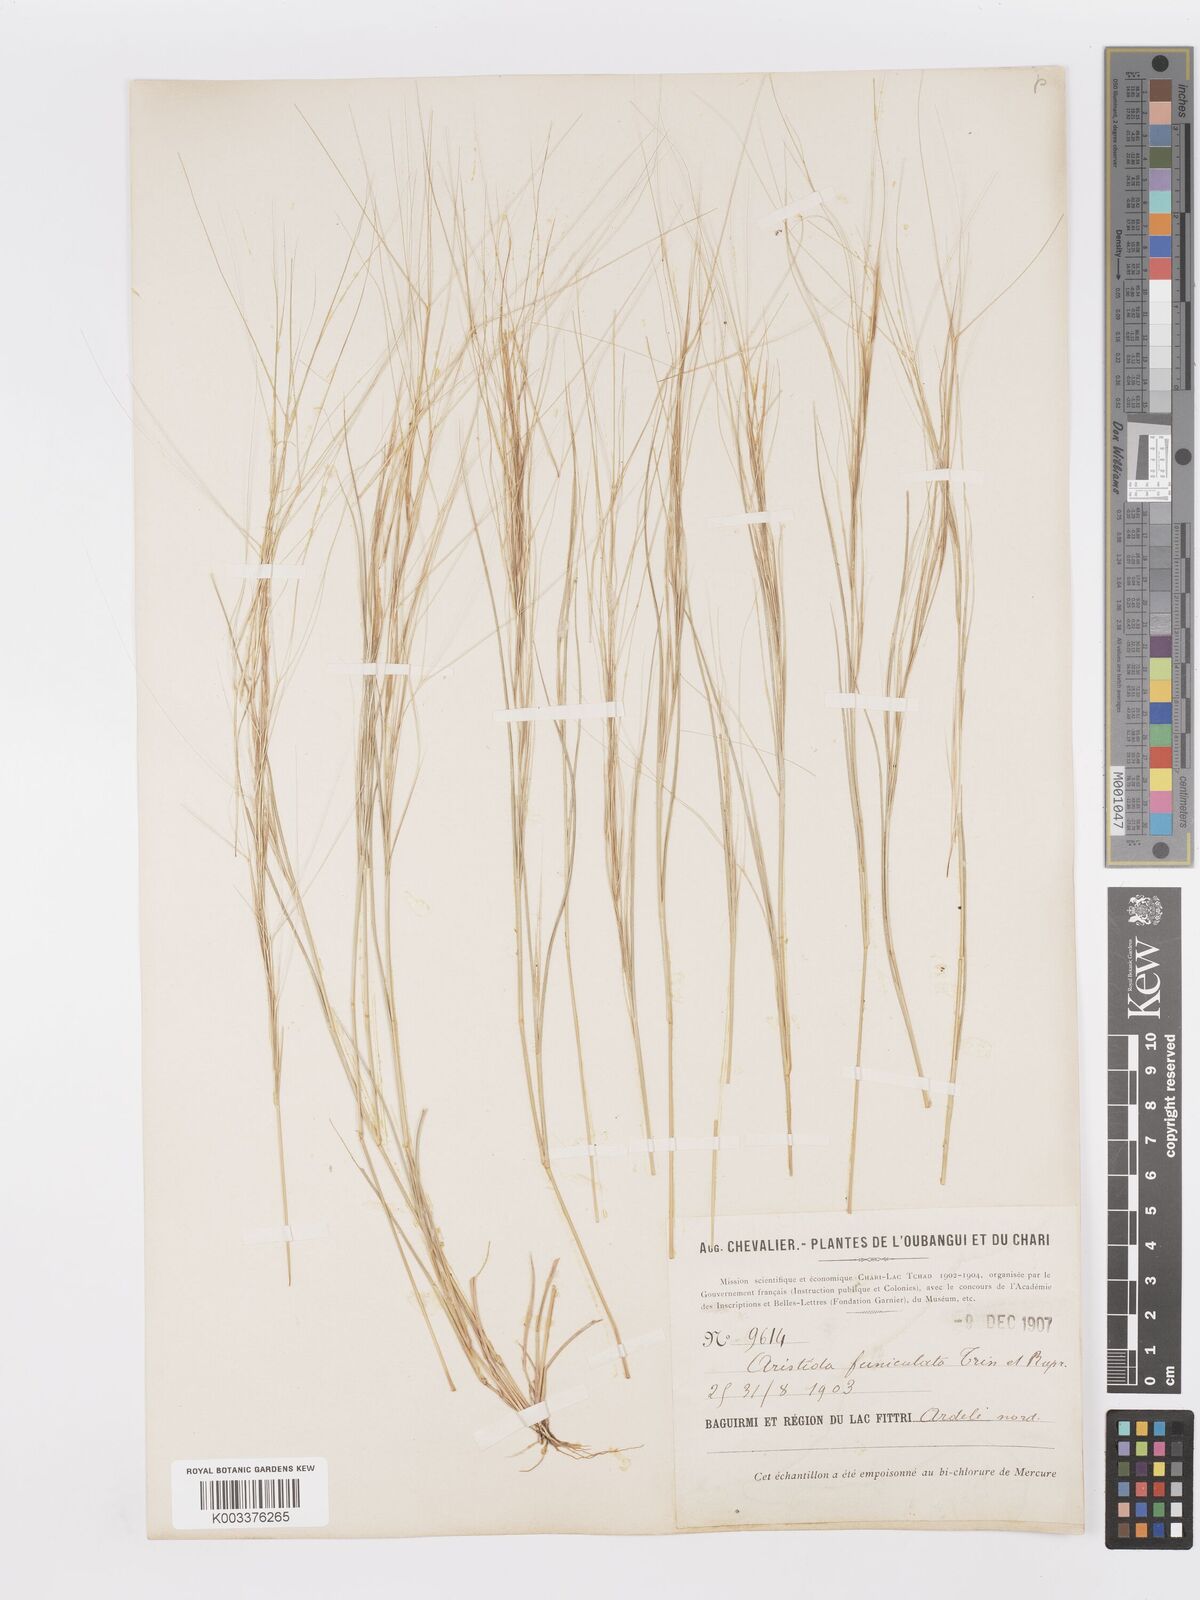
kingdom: Plantae
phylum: Tracheophyta
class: Liliopsida
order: Poales
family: Poaceae
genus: Aristida
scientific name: Aristida funiculata
